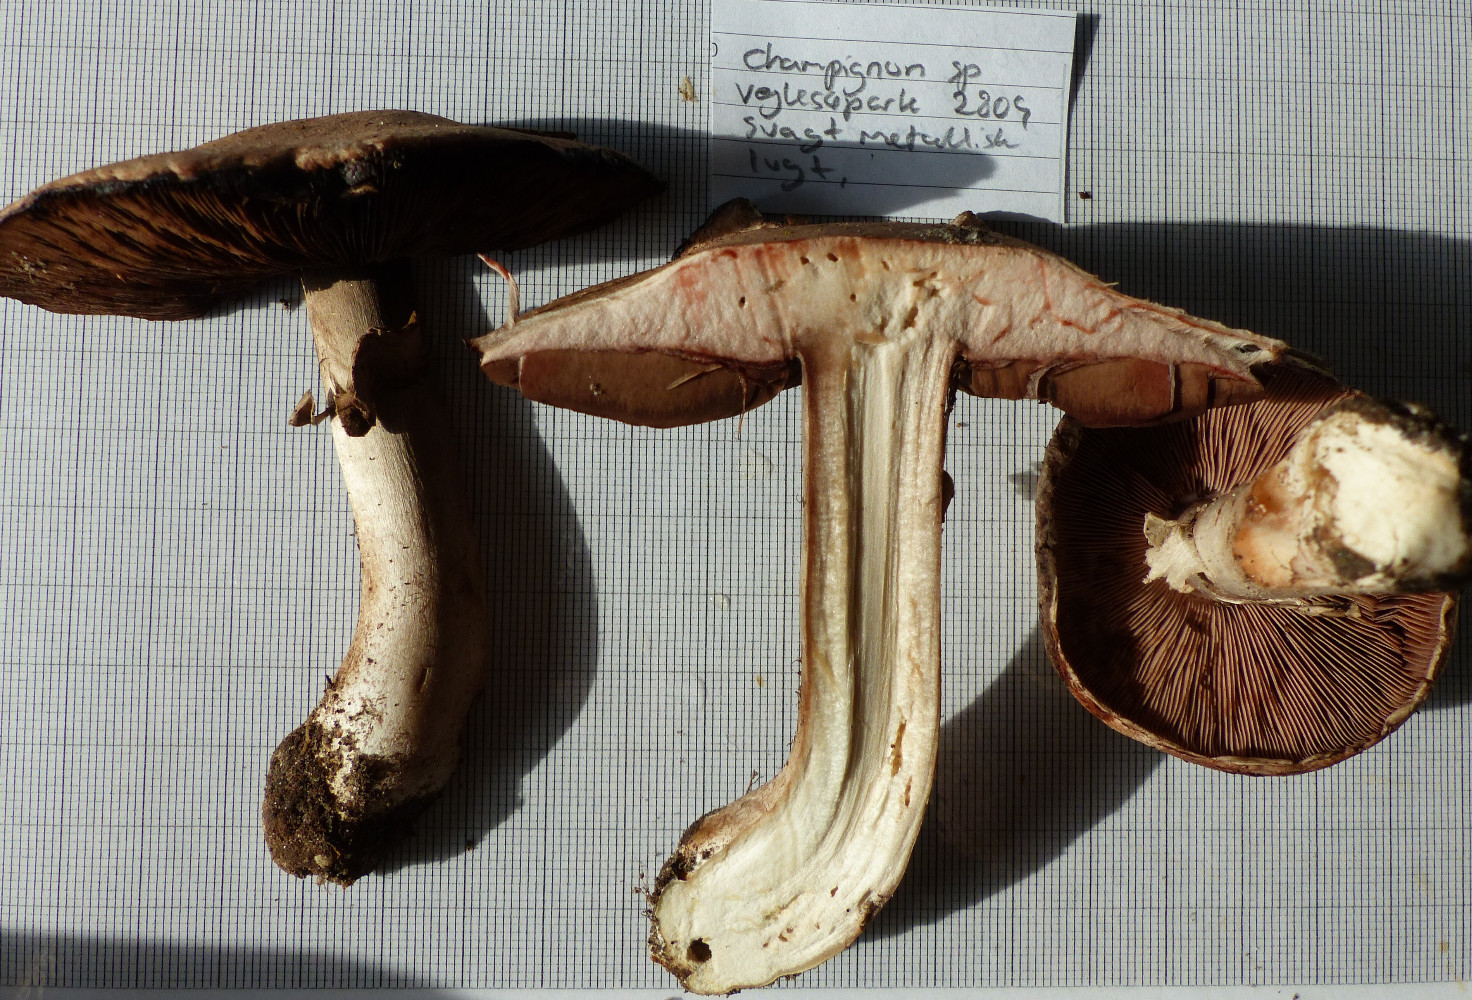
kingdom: Fungi
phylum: Basidiomycota
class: Agaricomycetes
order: Agaricales
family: Agaricaceae
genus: Agaricus
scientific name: Agaricus
